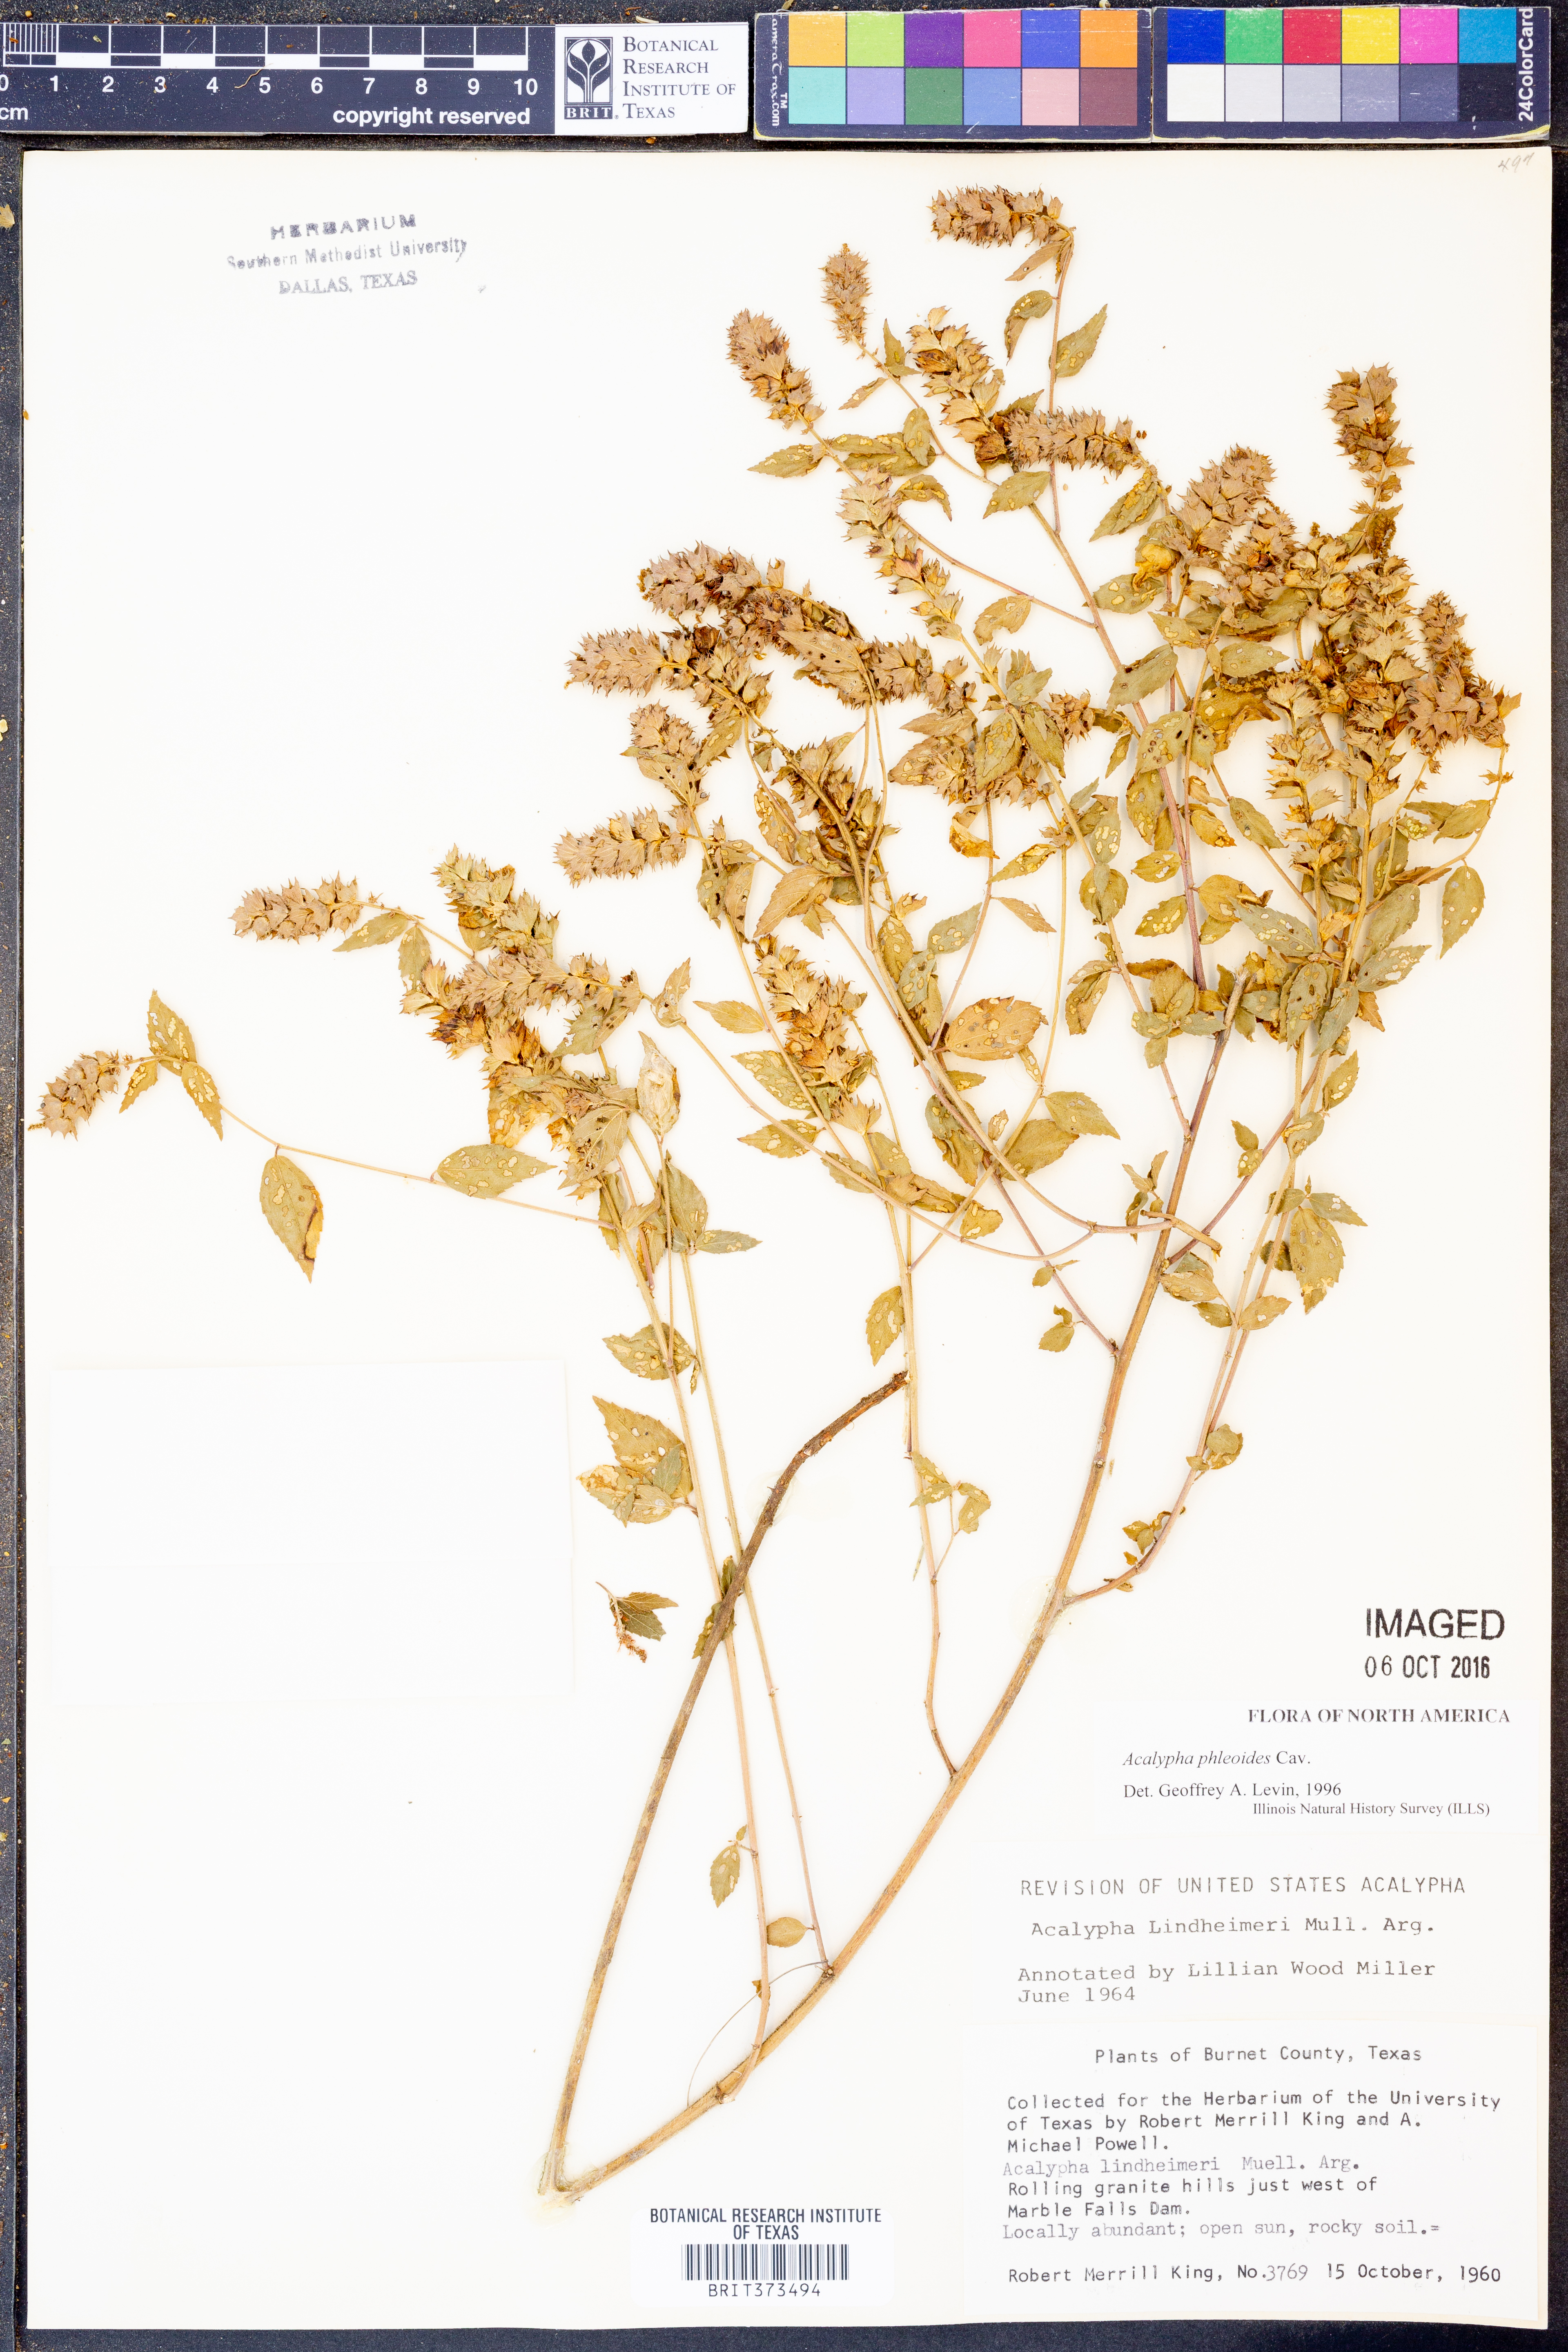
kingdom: Plantae
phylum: Tracheophyta
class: Magnoliopsida
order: Malpighiales
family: Euphorbiaceae
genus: Acalypha
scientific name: Acalypha phleoides
